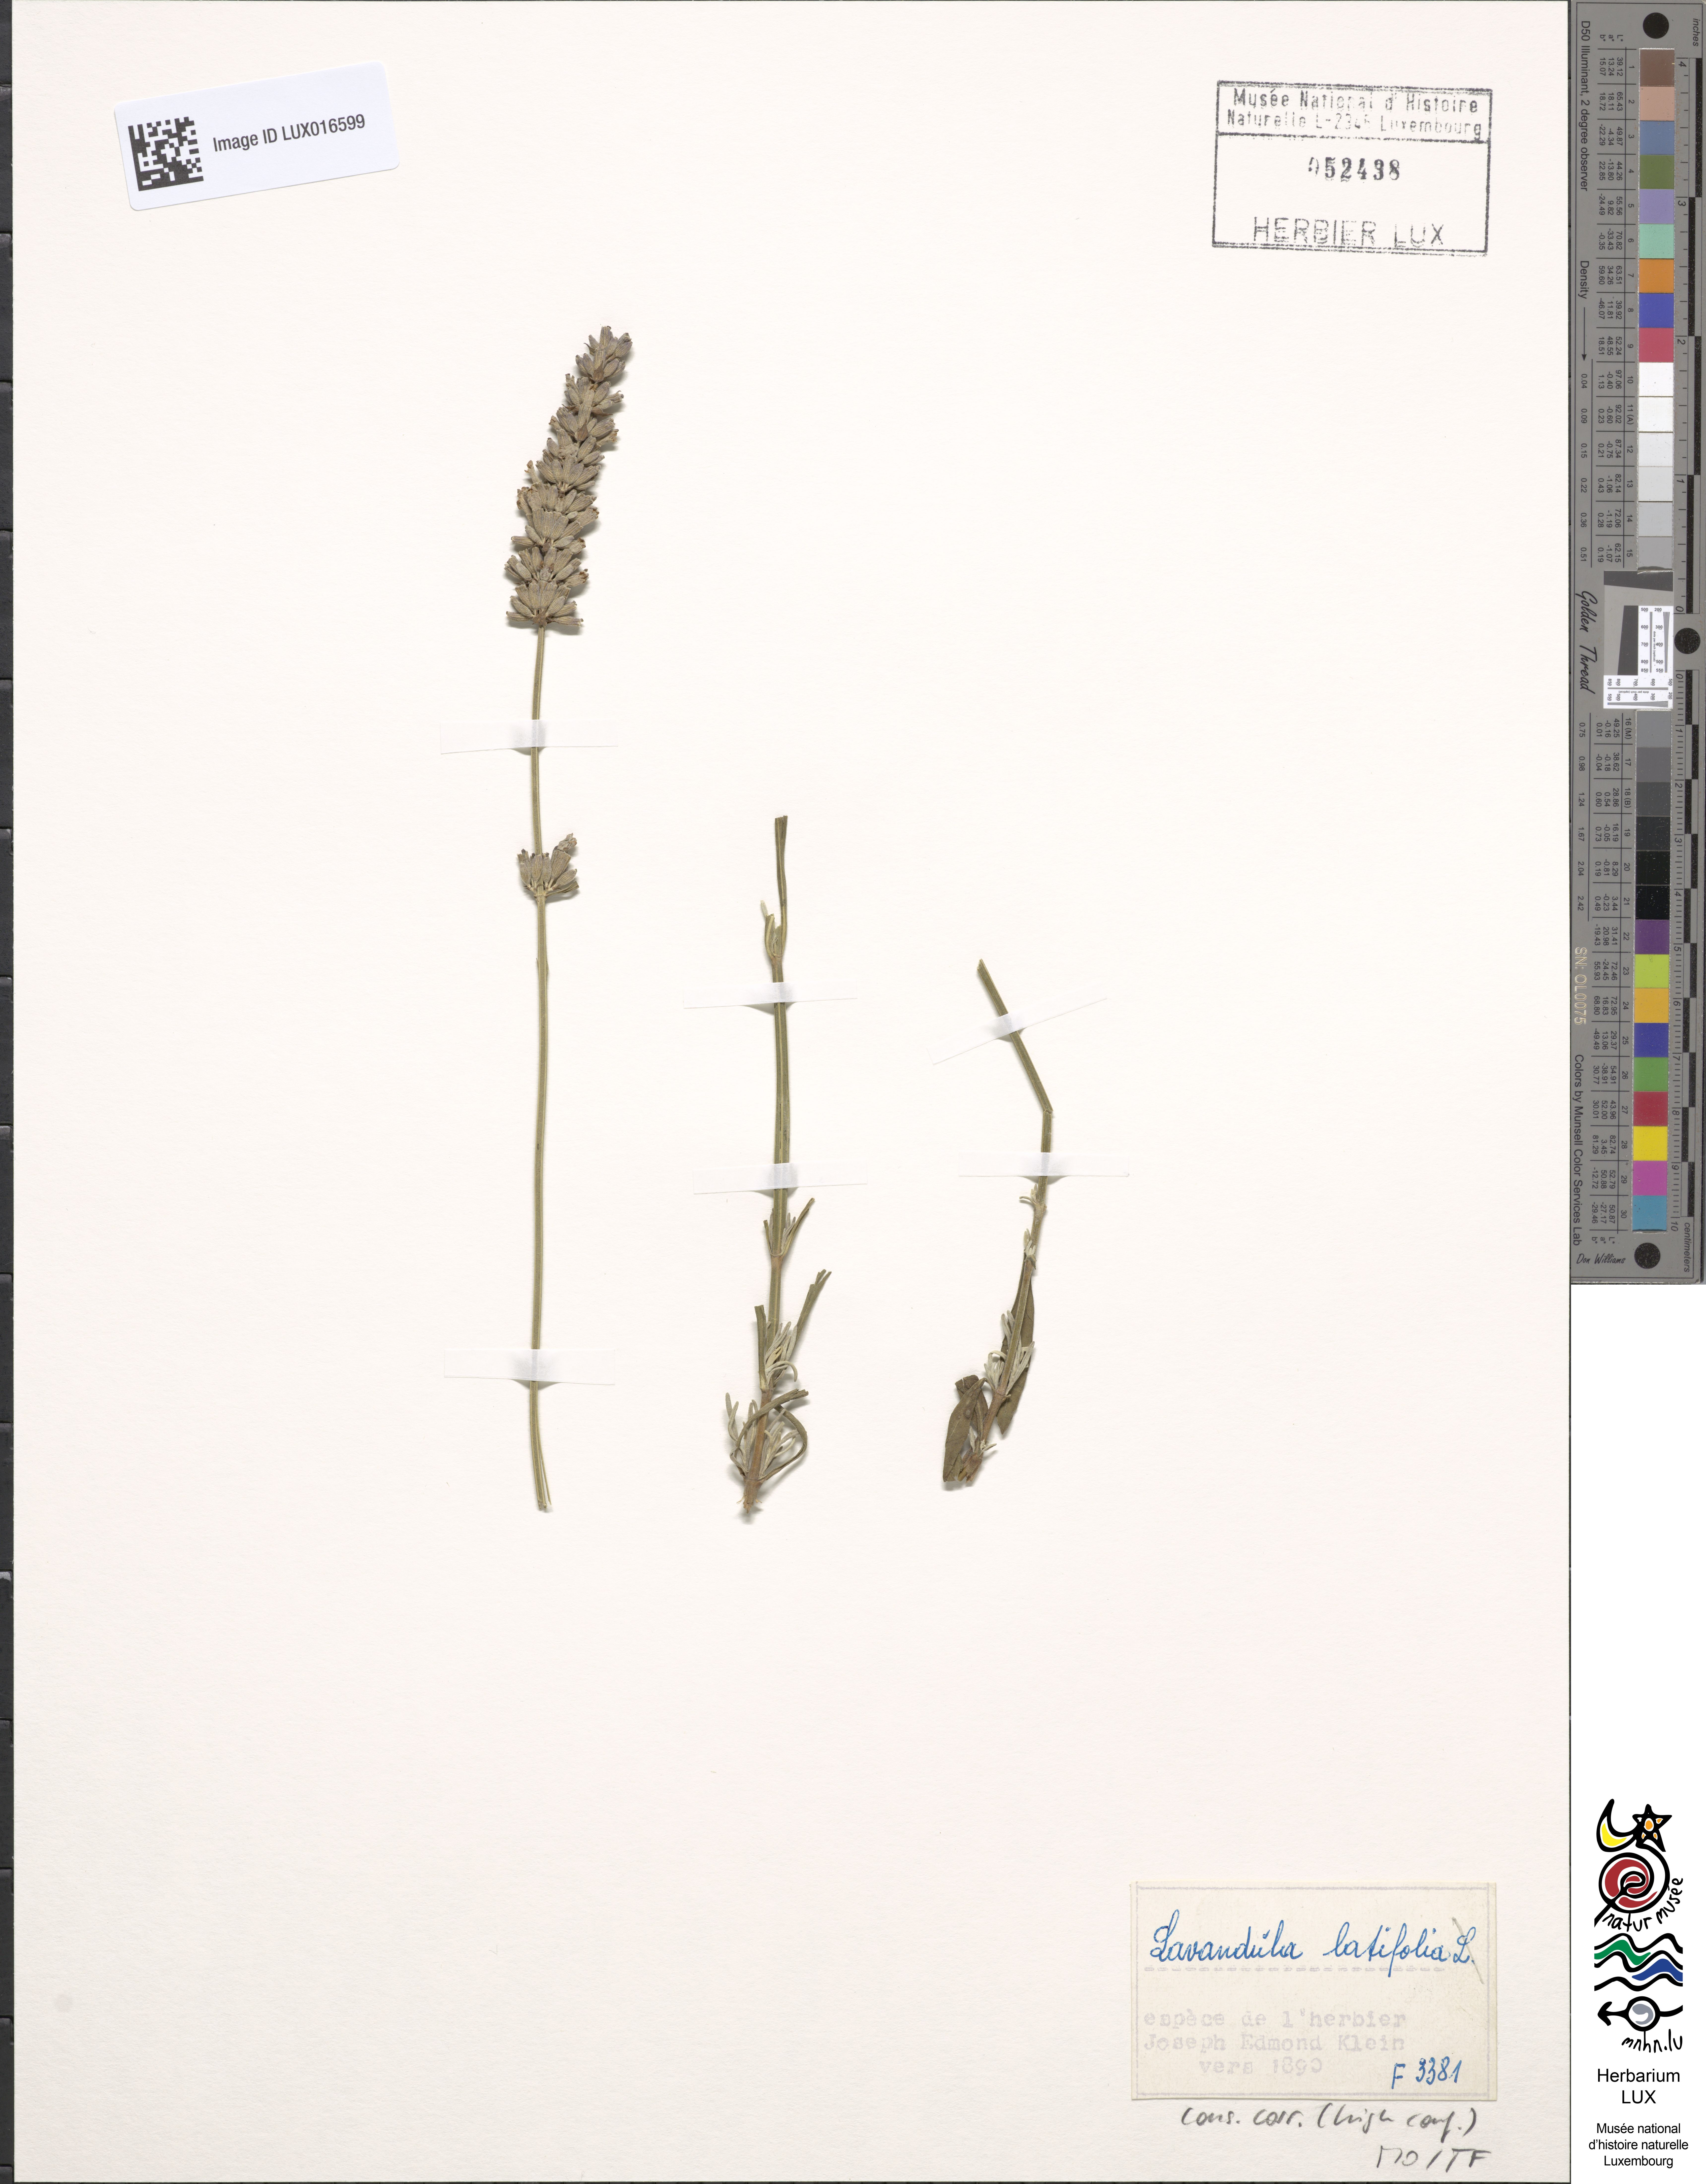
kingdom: Plantae
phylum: Tracheophyta
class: Magnoliopsida
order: Lamiales
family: Lamiaceae
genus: Lavandula
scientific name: Lavandula latifolia
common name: Spike lavendar
